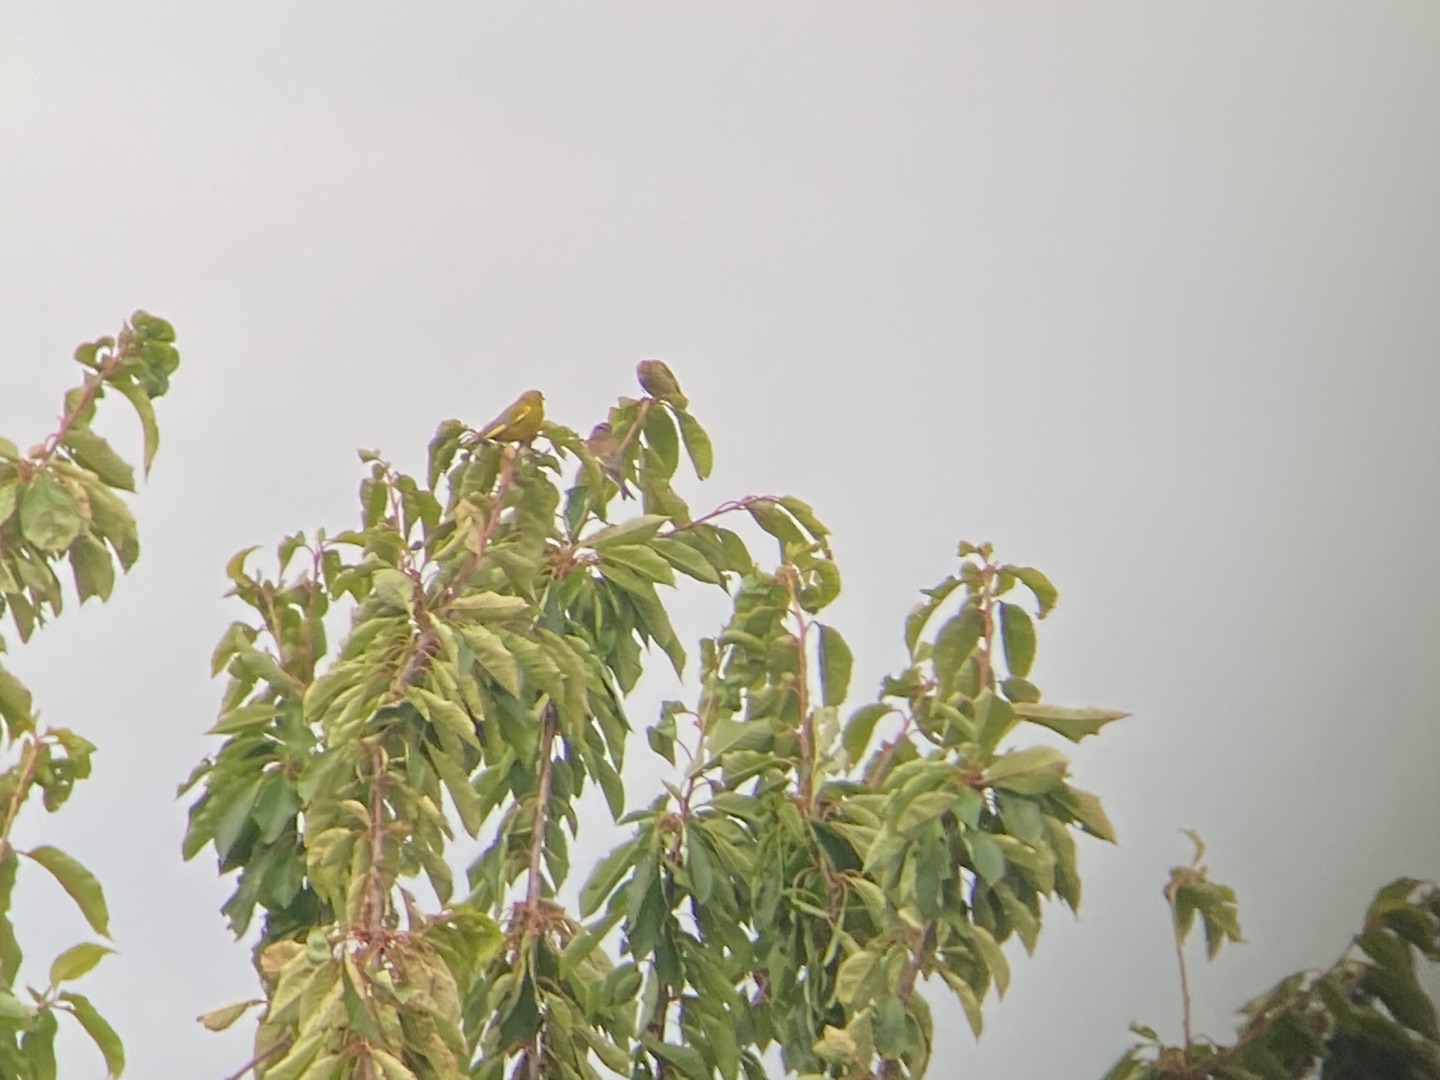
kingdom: Plantae
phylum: Tracheophyta
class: Liliopsida
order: Poales
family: Poaceae
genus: Chloris
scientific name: Chloris chloris
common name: Grønirisk
